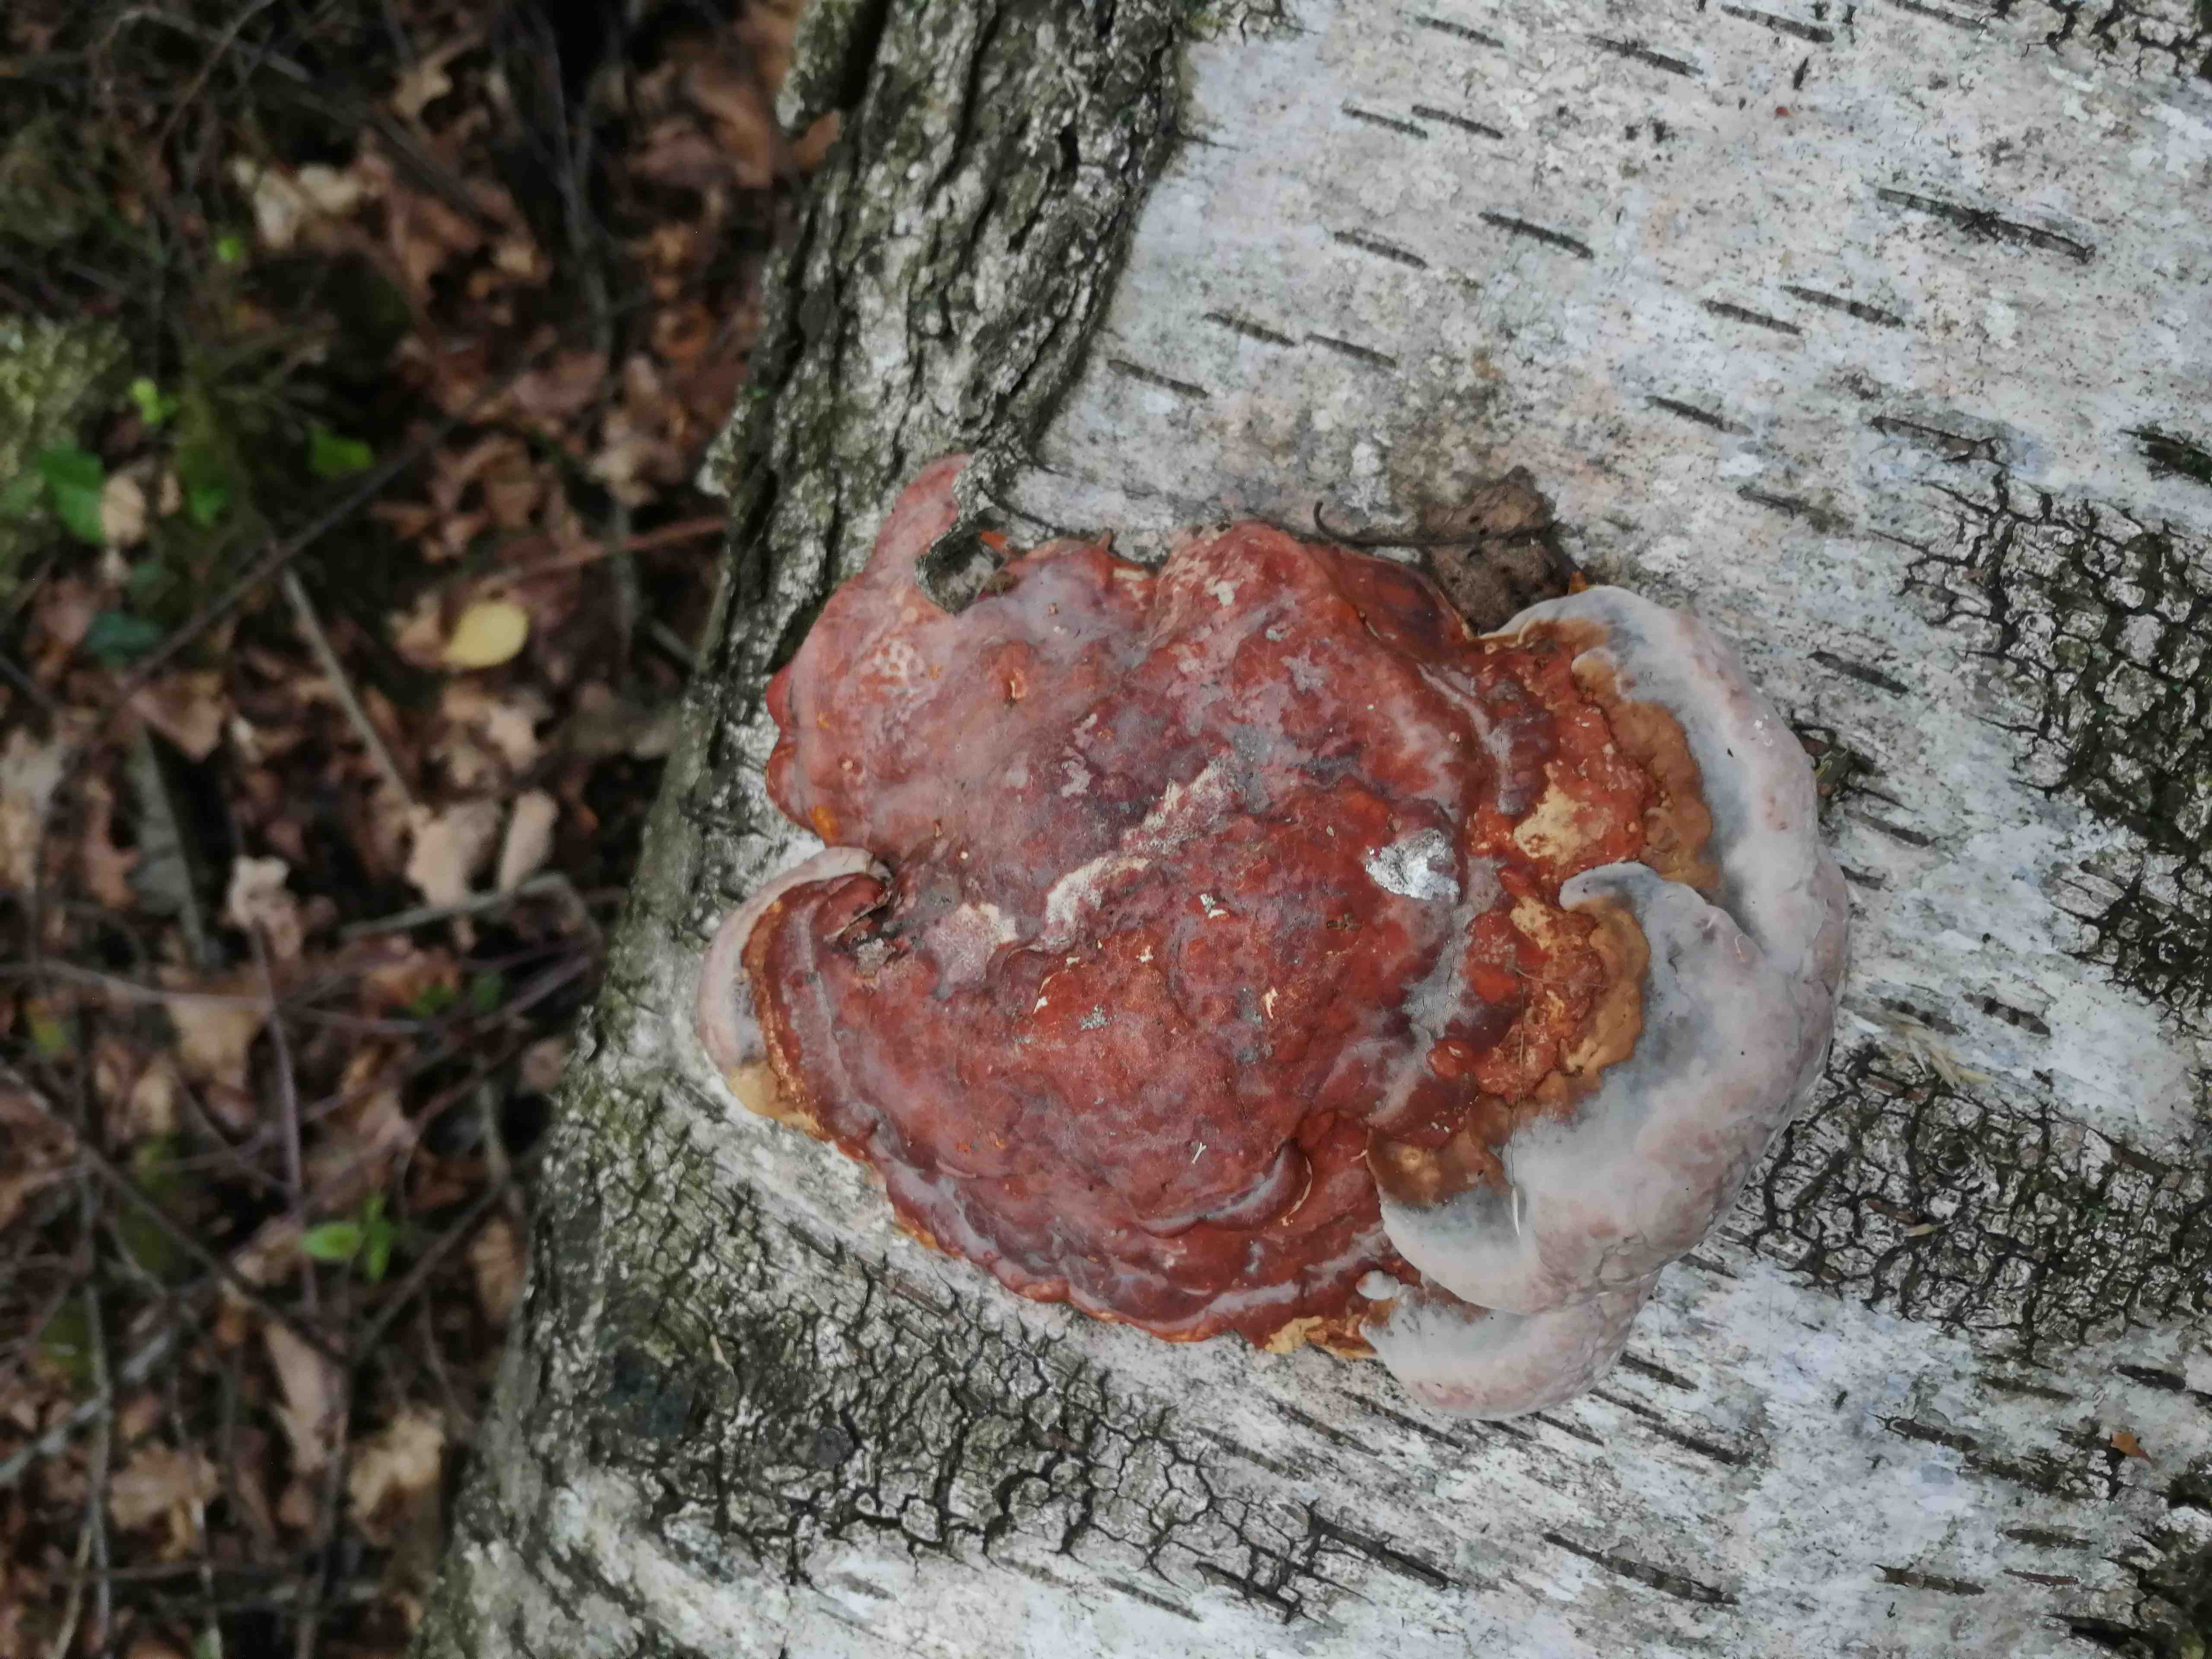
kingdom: Fungi
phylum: Basidiomycota
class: Agaricomycetes
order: Polyporales
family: Fomitopsidaceae
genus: Fomitopsis
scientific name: Fomitopsis pinicola
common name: randbæltet hovporesvamp
